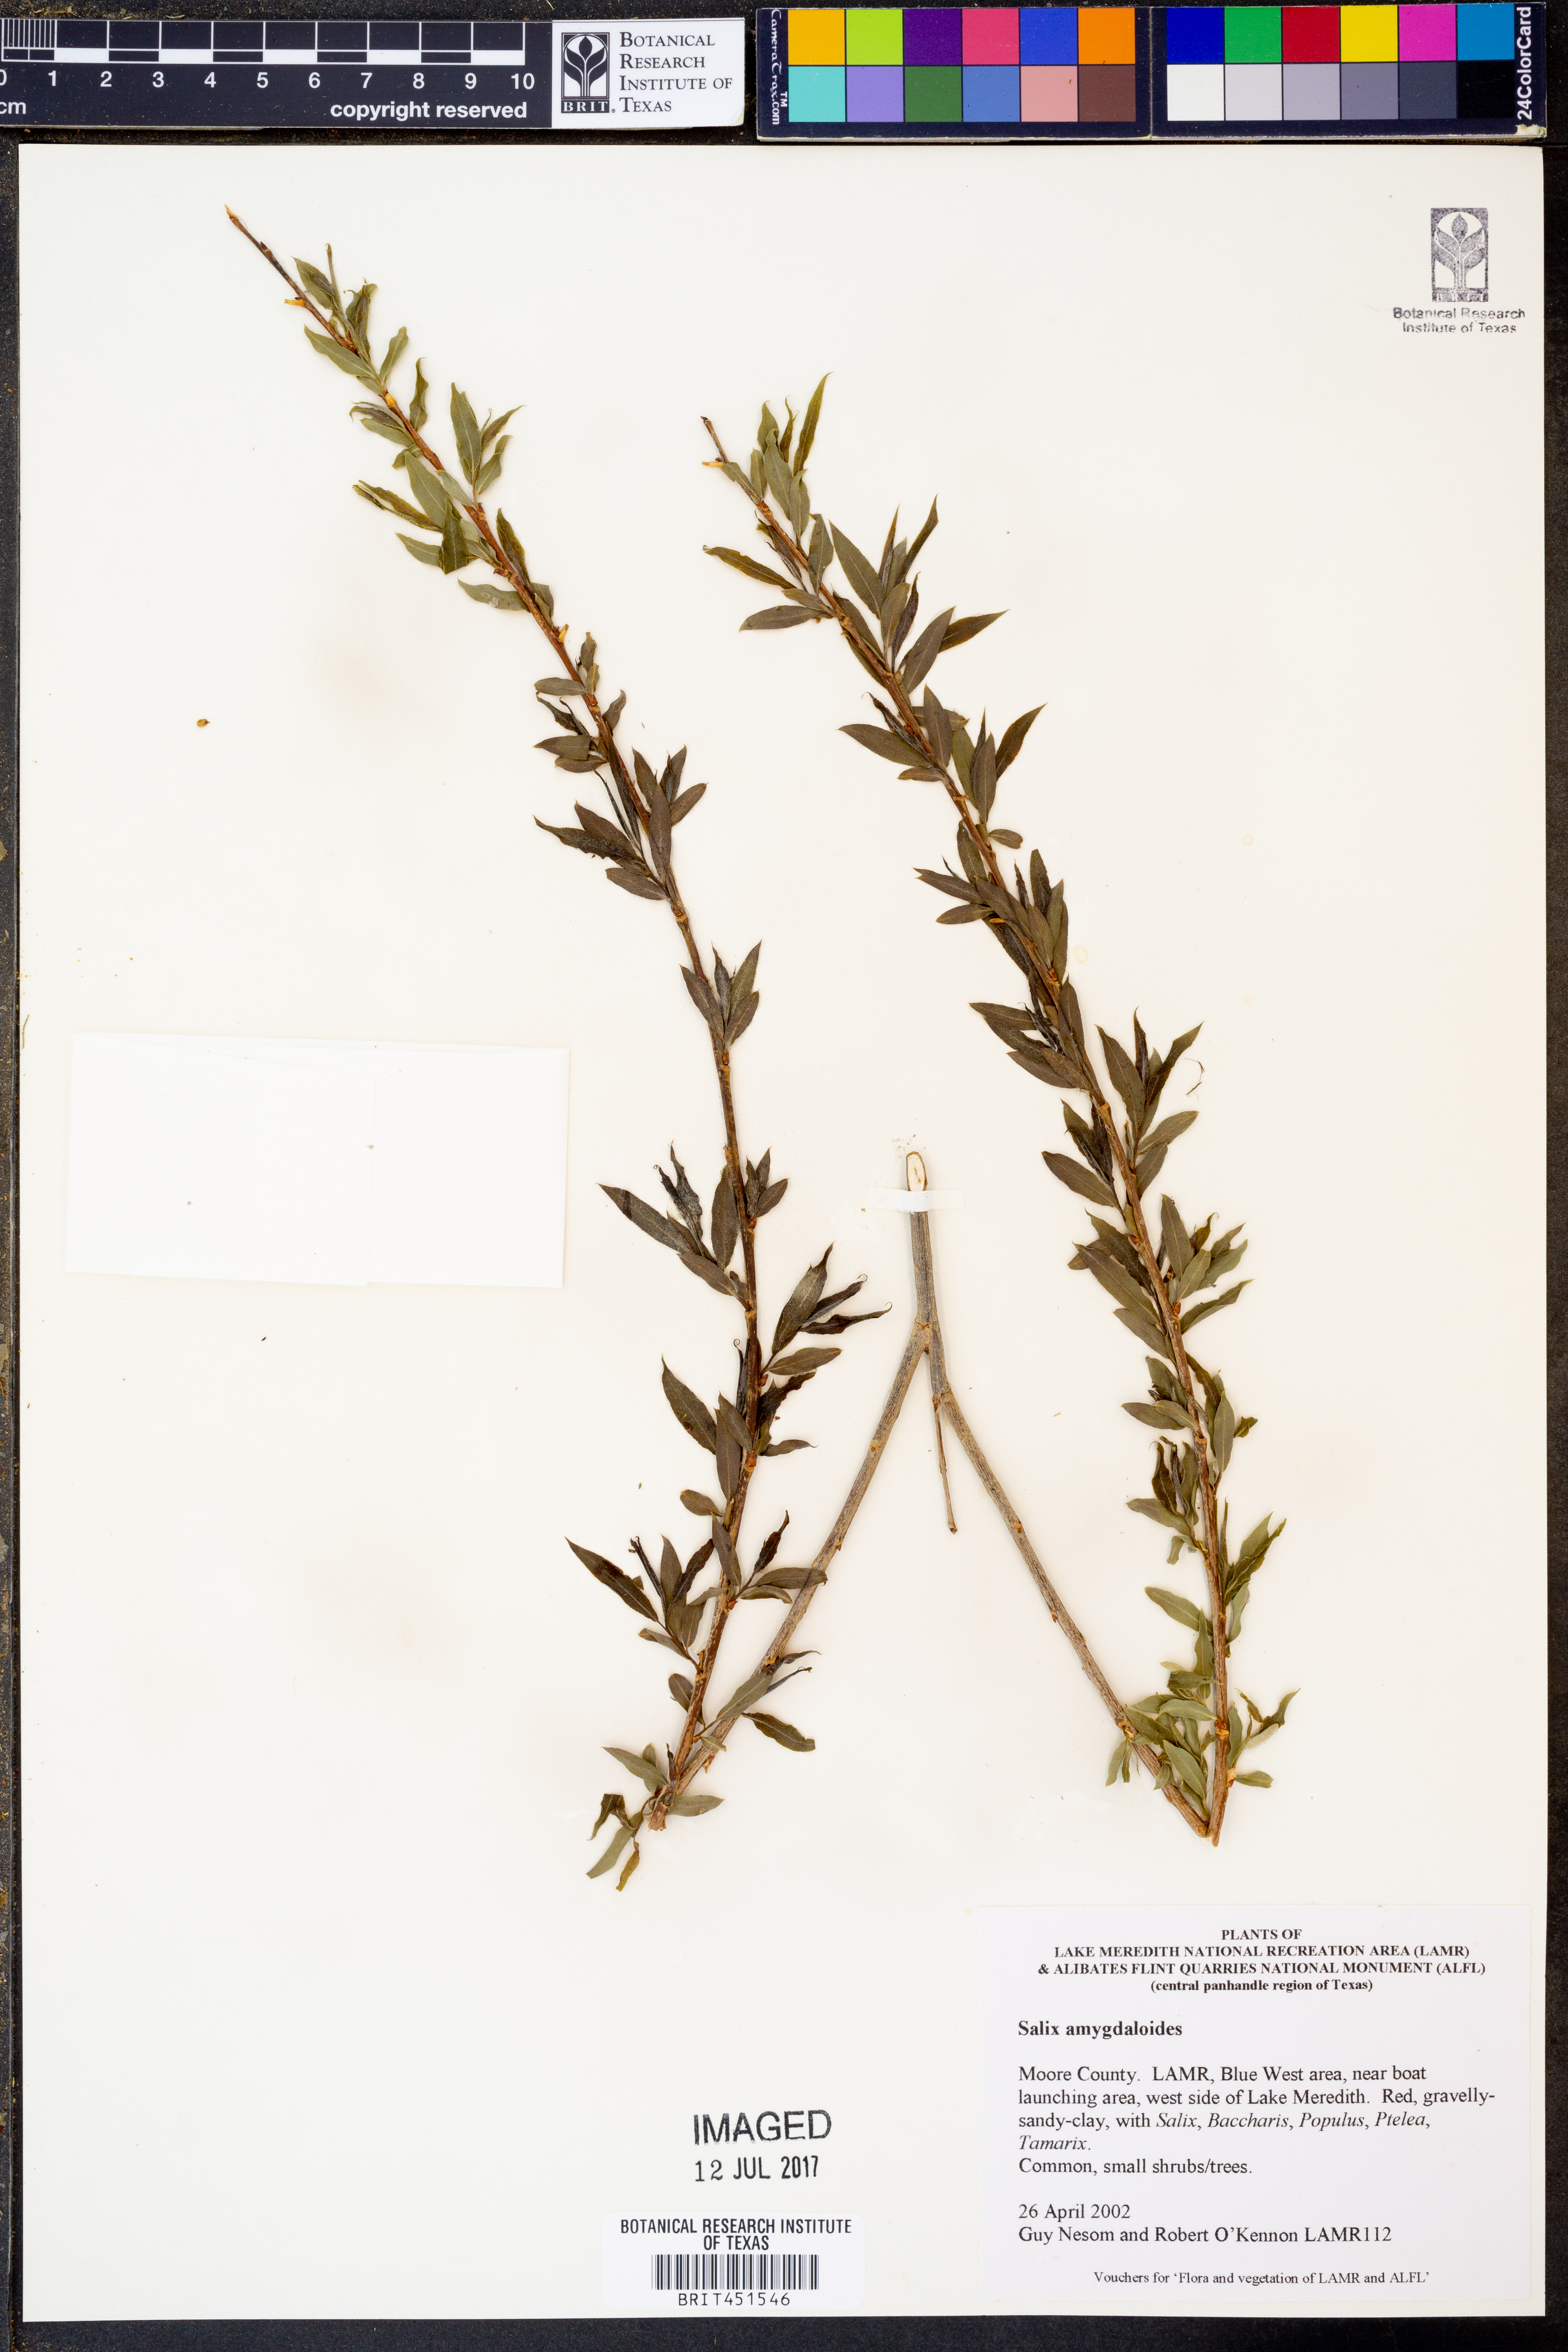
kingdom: Plantae
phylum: Tracheophyta
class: Magnoliopsida
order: Malpighiales
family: Salicaceae
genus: Salix
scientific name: Salix amygdaloides
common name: Peach leaf willow
